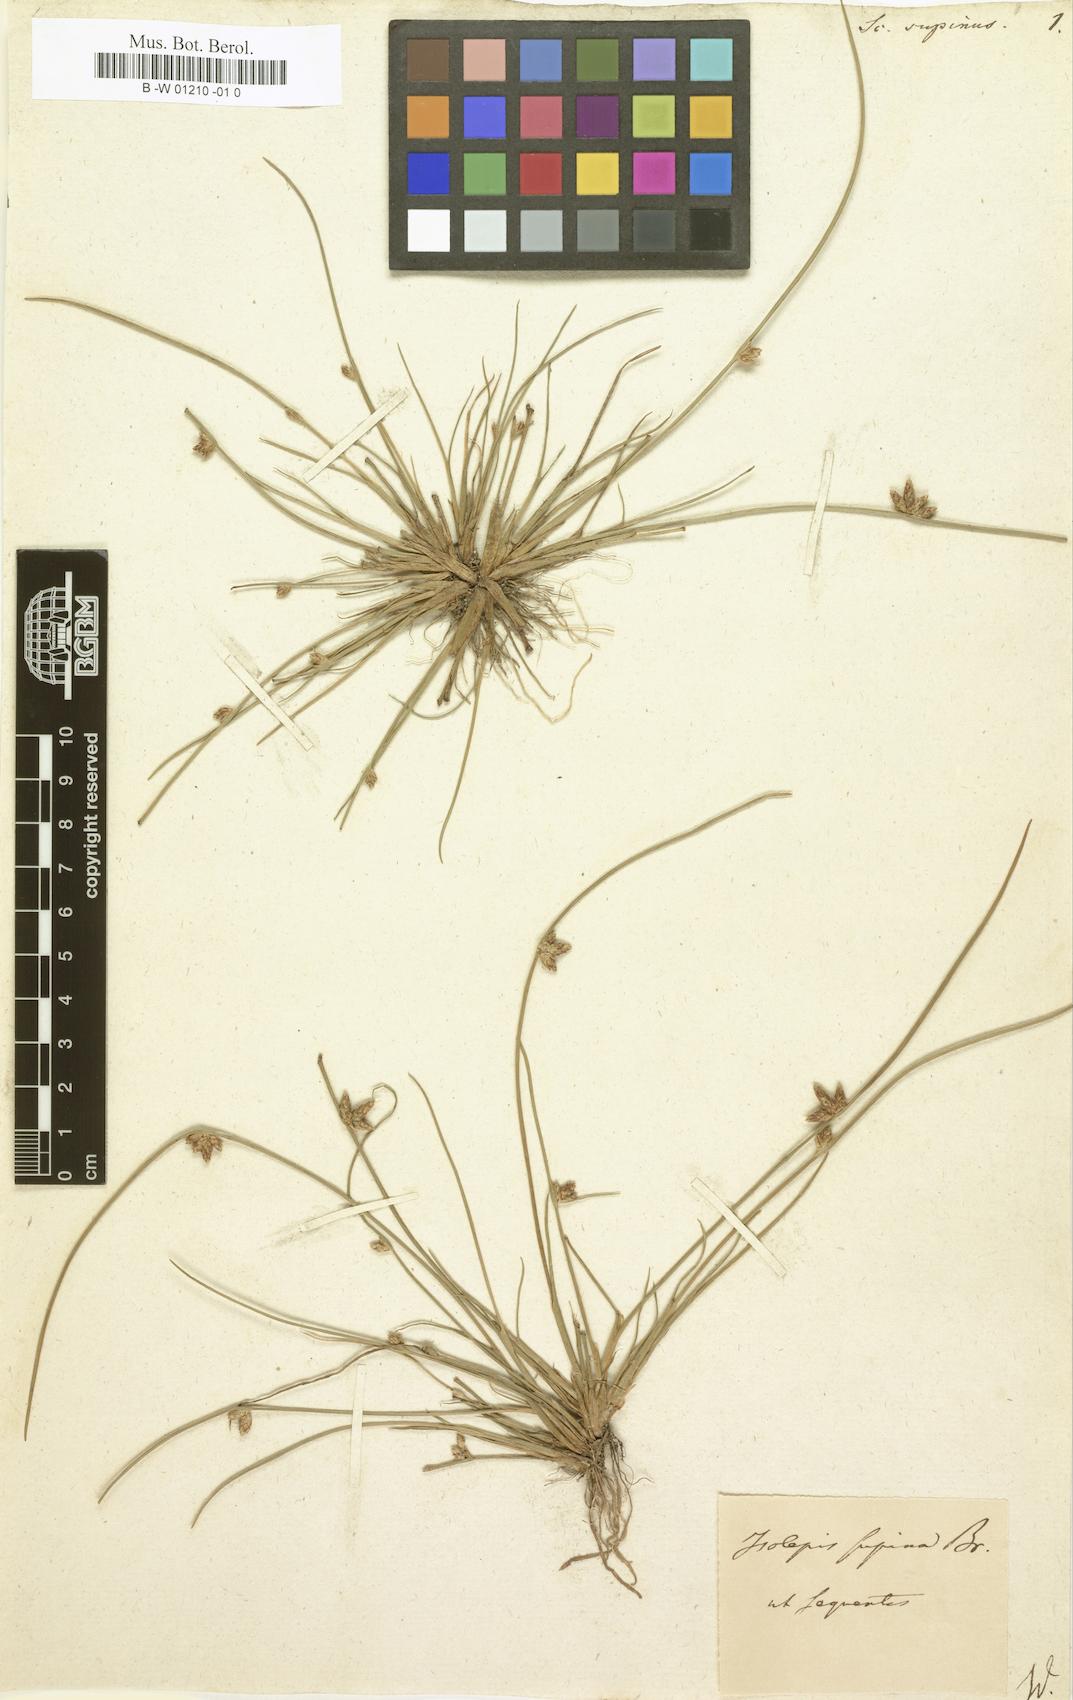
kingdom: Plantae
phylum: Tracheophyta
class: Liliopsida
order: Poales
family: Cyperaceae
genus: Scirpus
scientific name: Scirpus supinus
